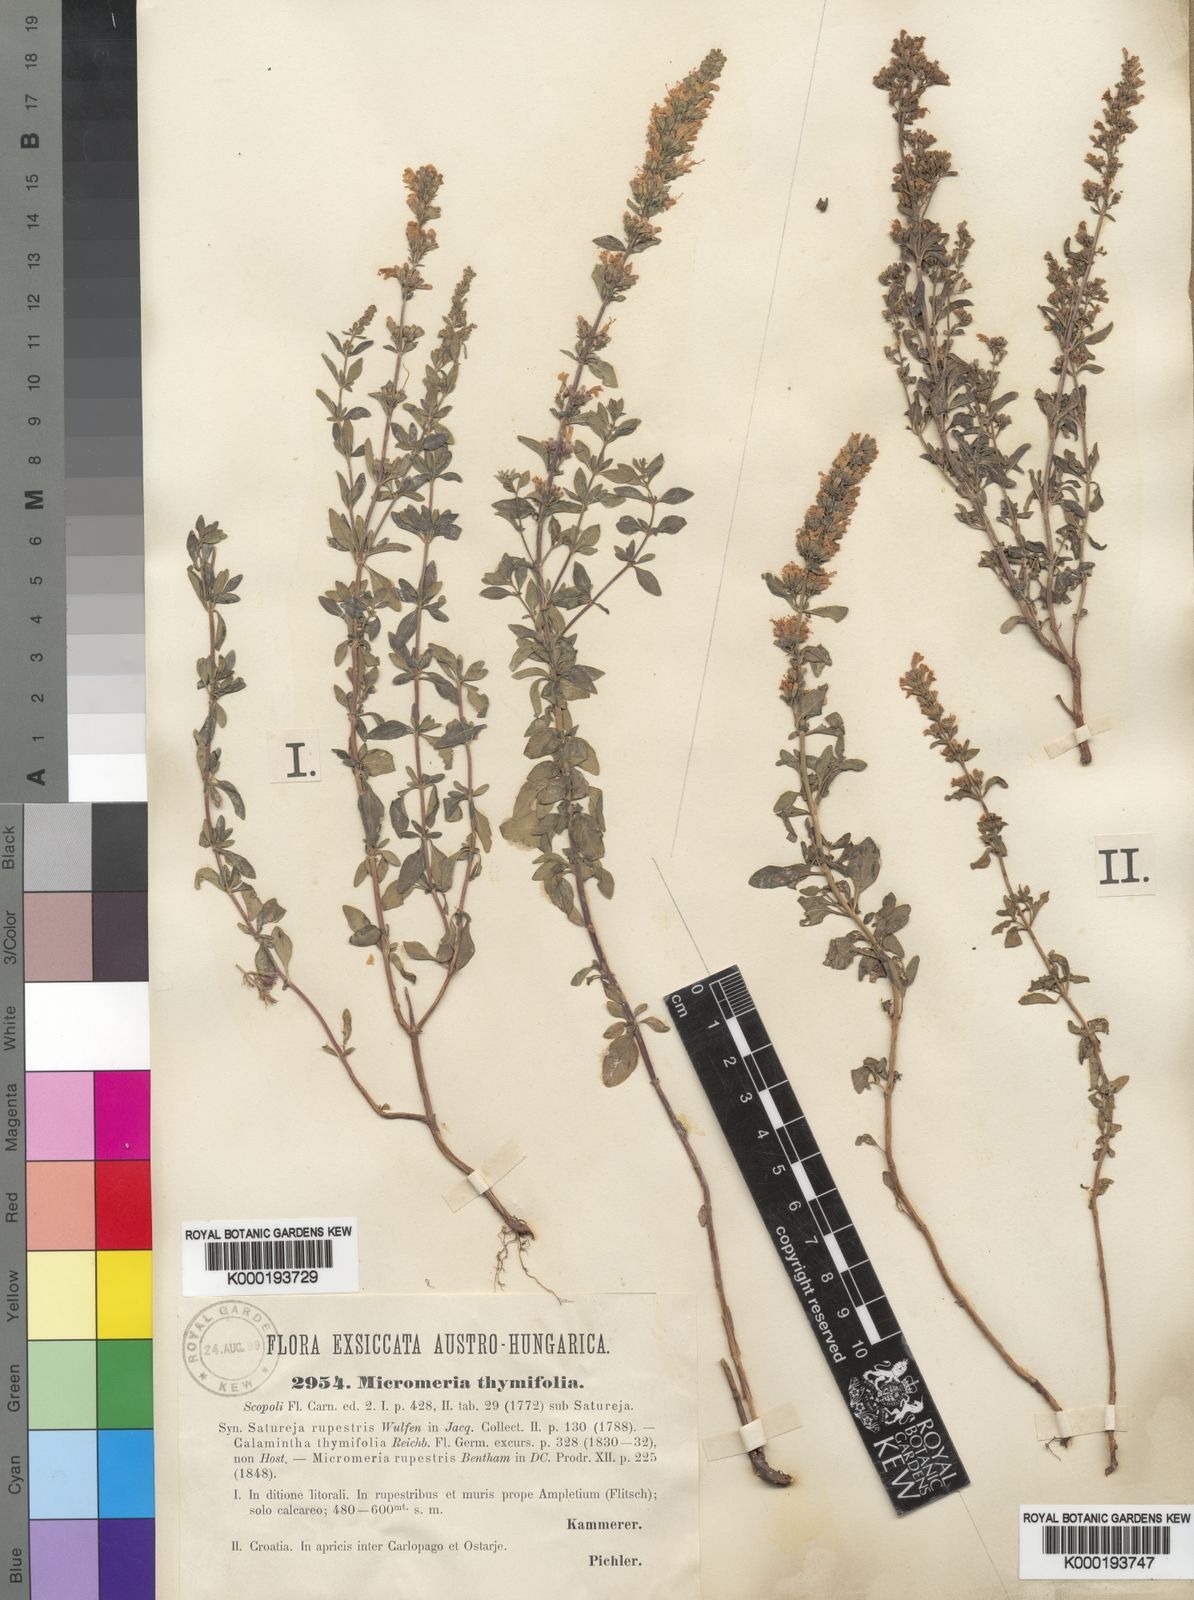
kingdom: Plantae
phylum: Tracheophyta
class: Magnoliopsida
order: Lamiales
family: Lamiaceae
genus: Micromeria
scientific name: Micromeria
